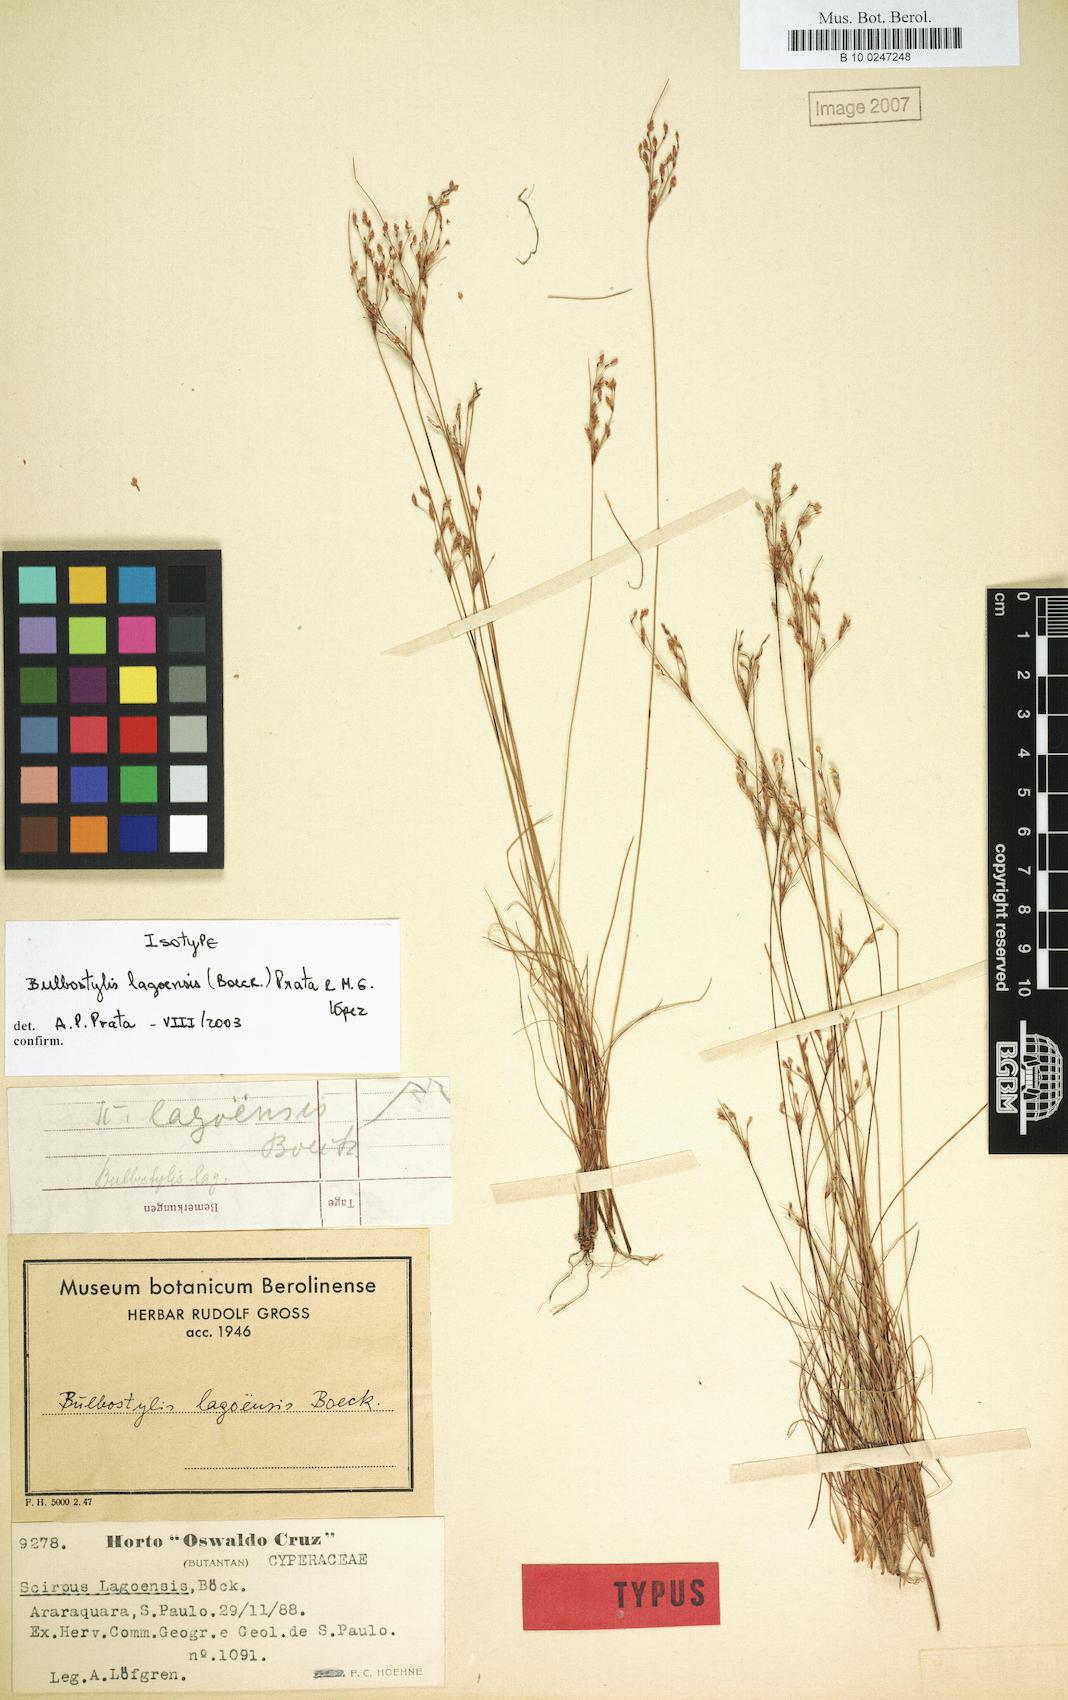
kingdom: Plantae
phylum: Tracheophyta
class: Liliopsida
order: Poales
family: Cyperaceae
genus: Bulbostylis
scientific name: Bulbostylis lagoensis
